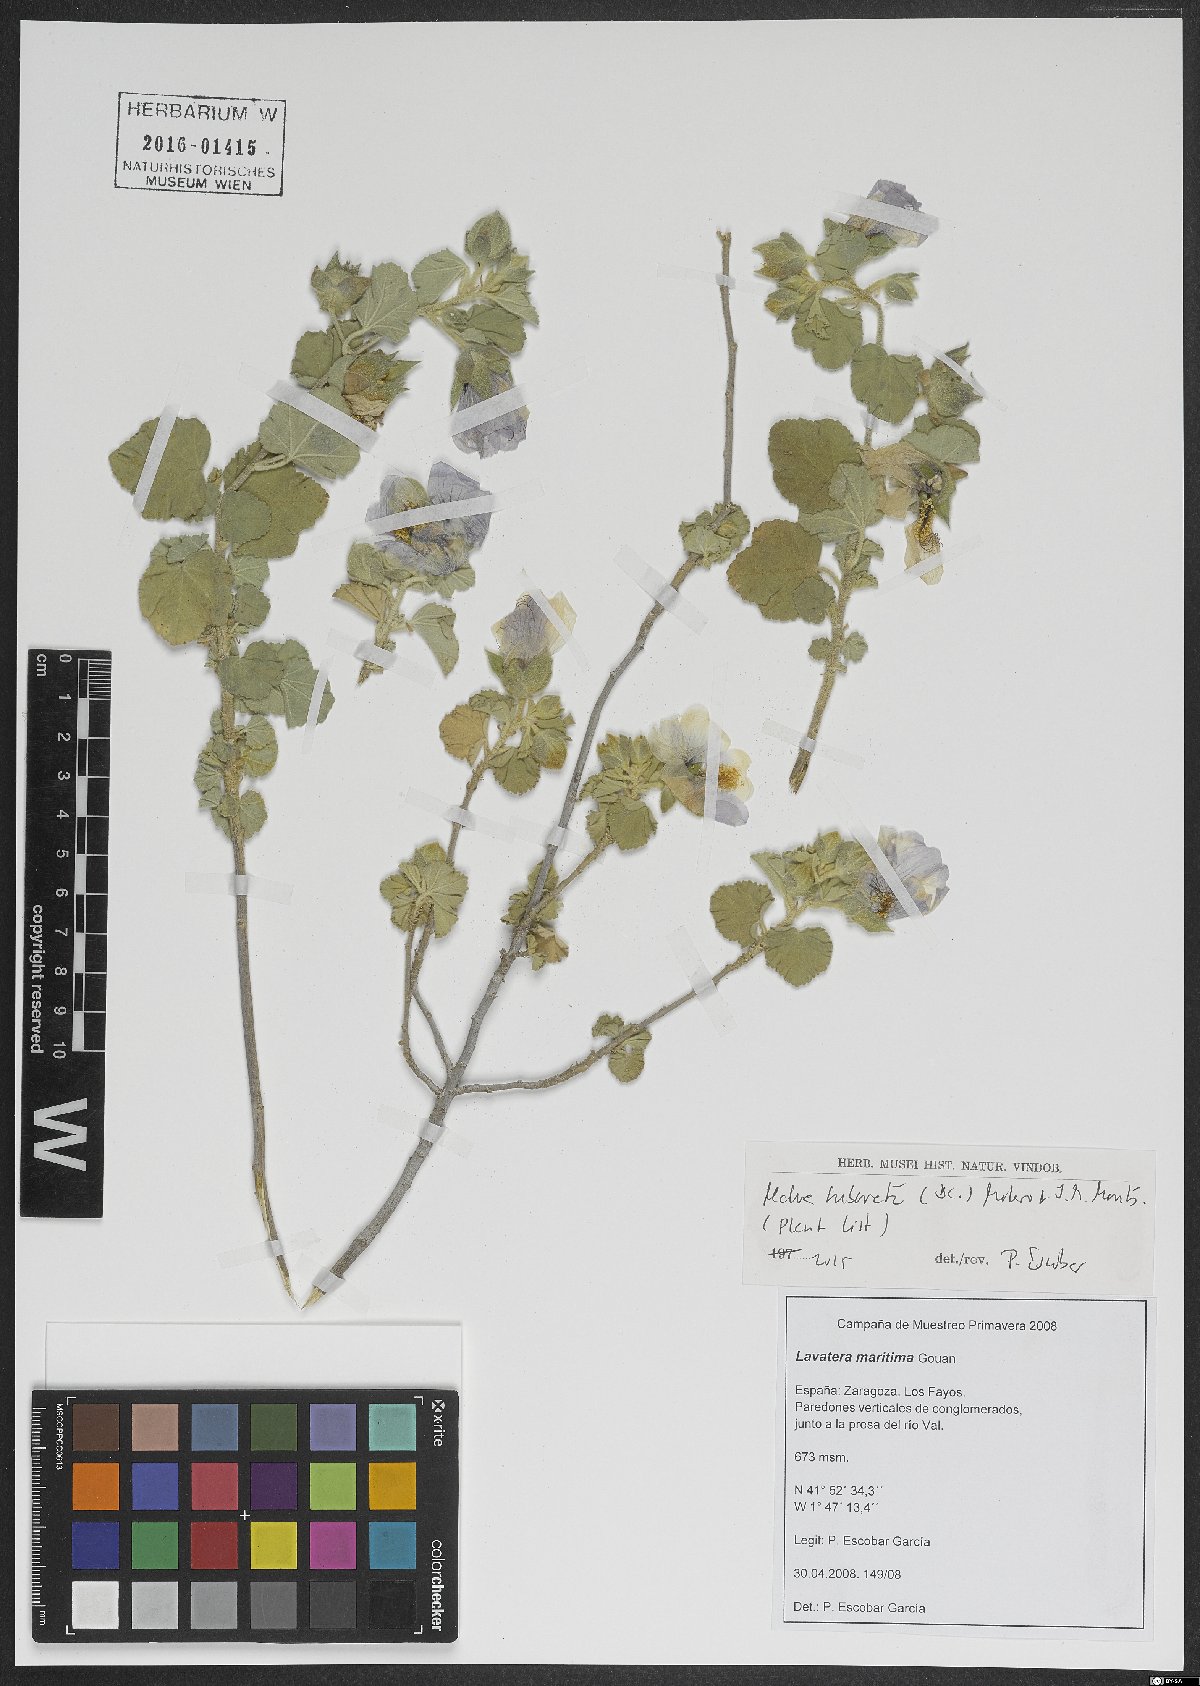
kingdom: Plantae
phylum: Tracheophyta
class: Magnoliopsida
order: Malvales
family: Malvaceae
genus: Malva
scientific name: Malva subovata
